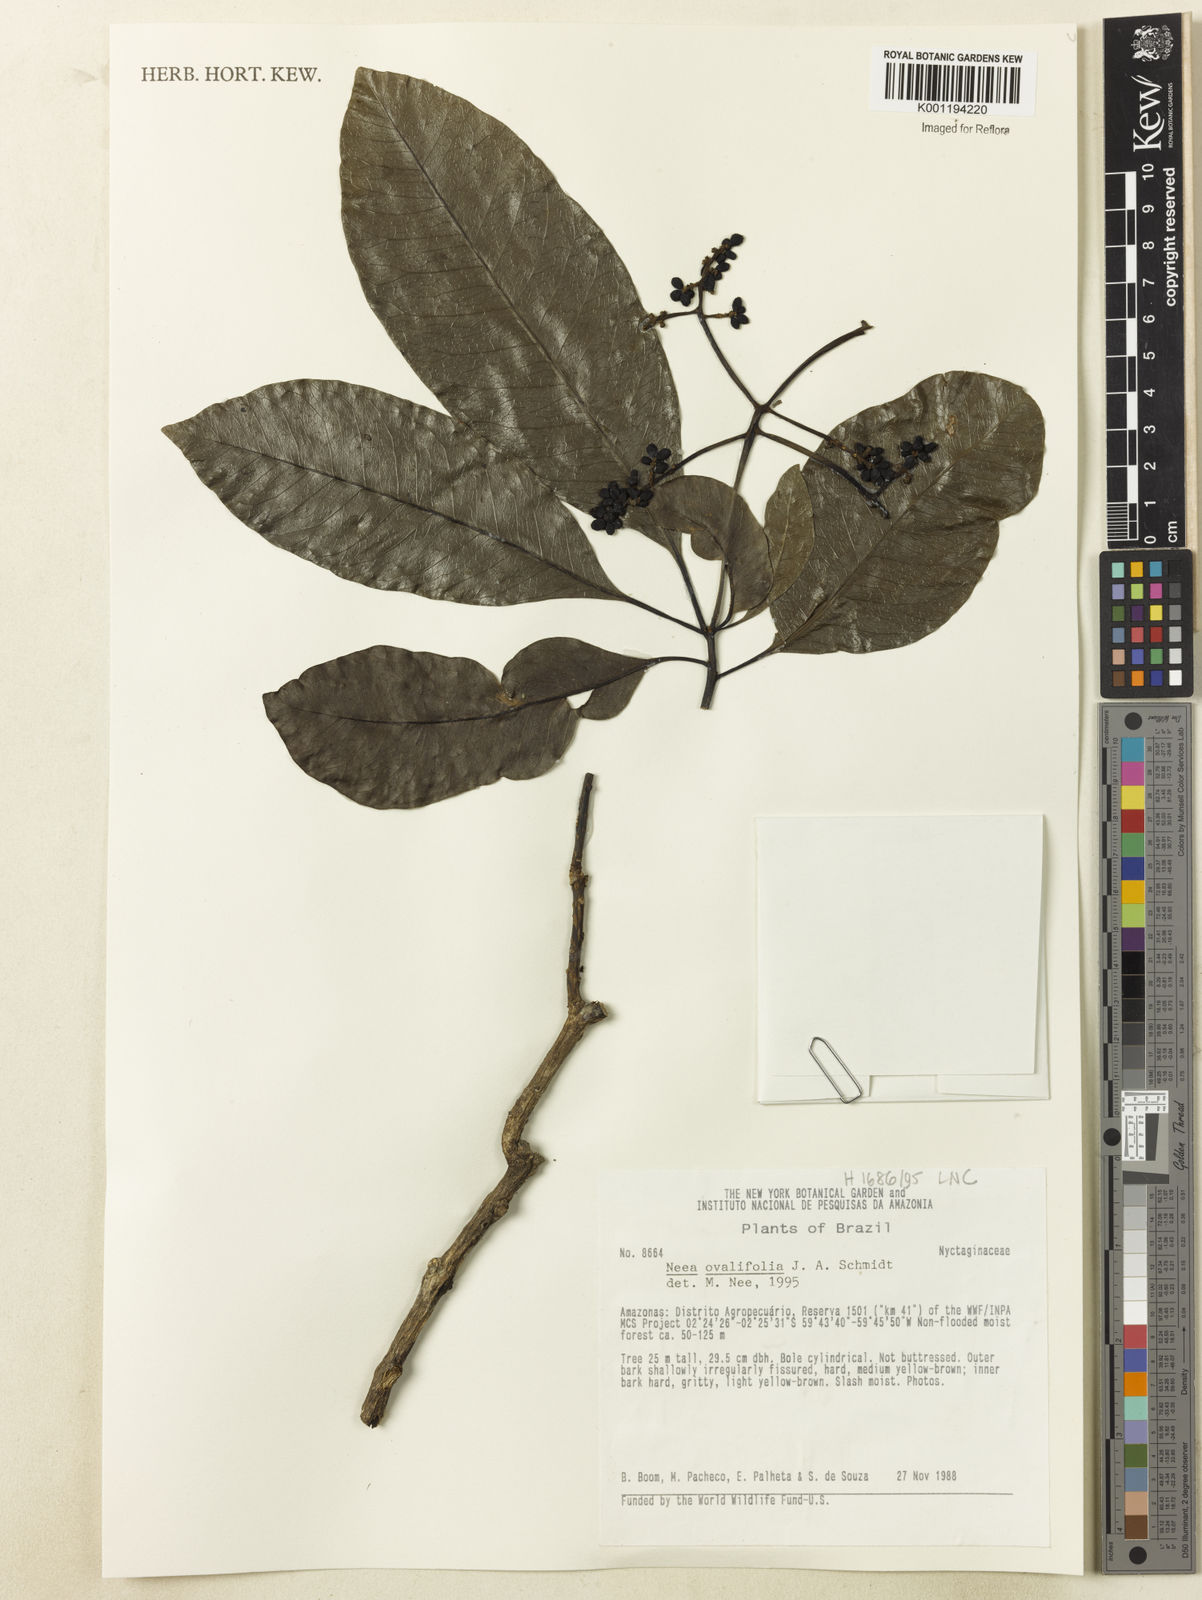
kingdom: Plantae
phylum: Tracheophyta
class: Magnoliopsida
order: Caryophyllales
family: Nyctaginaceae
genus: Neea
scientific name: Neea ovalifolia
